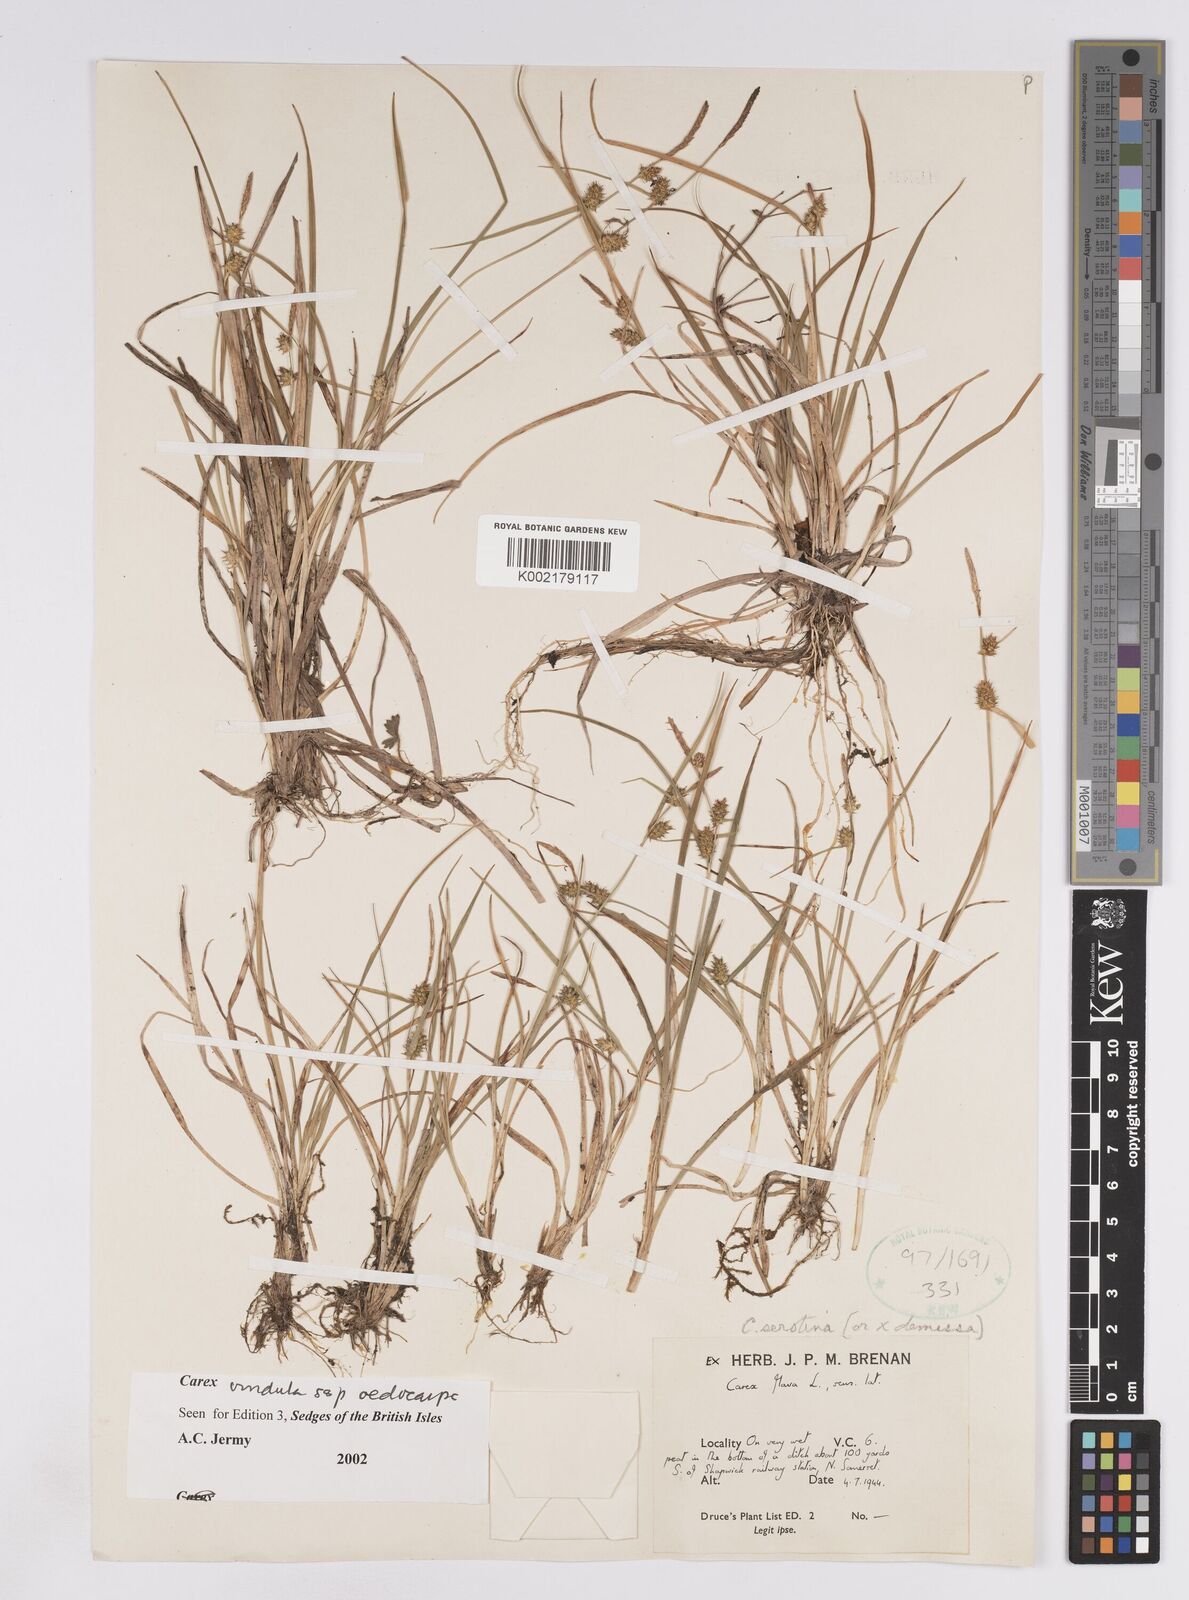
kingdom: Plantae
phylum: Tracheophyta
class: Liliopsida
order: Poales
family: Cyperaceae
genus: Carex
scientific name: Carex demissa
